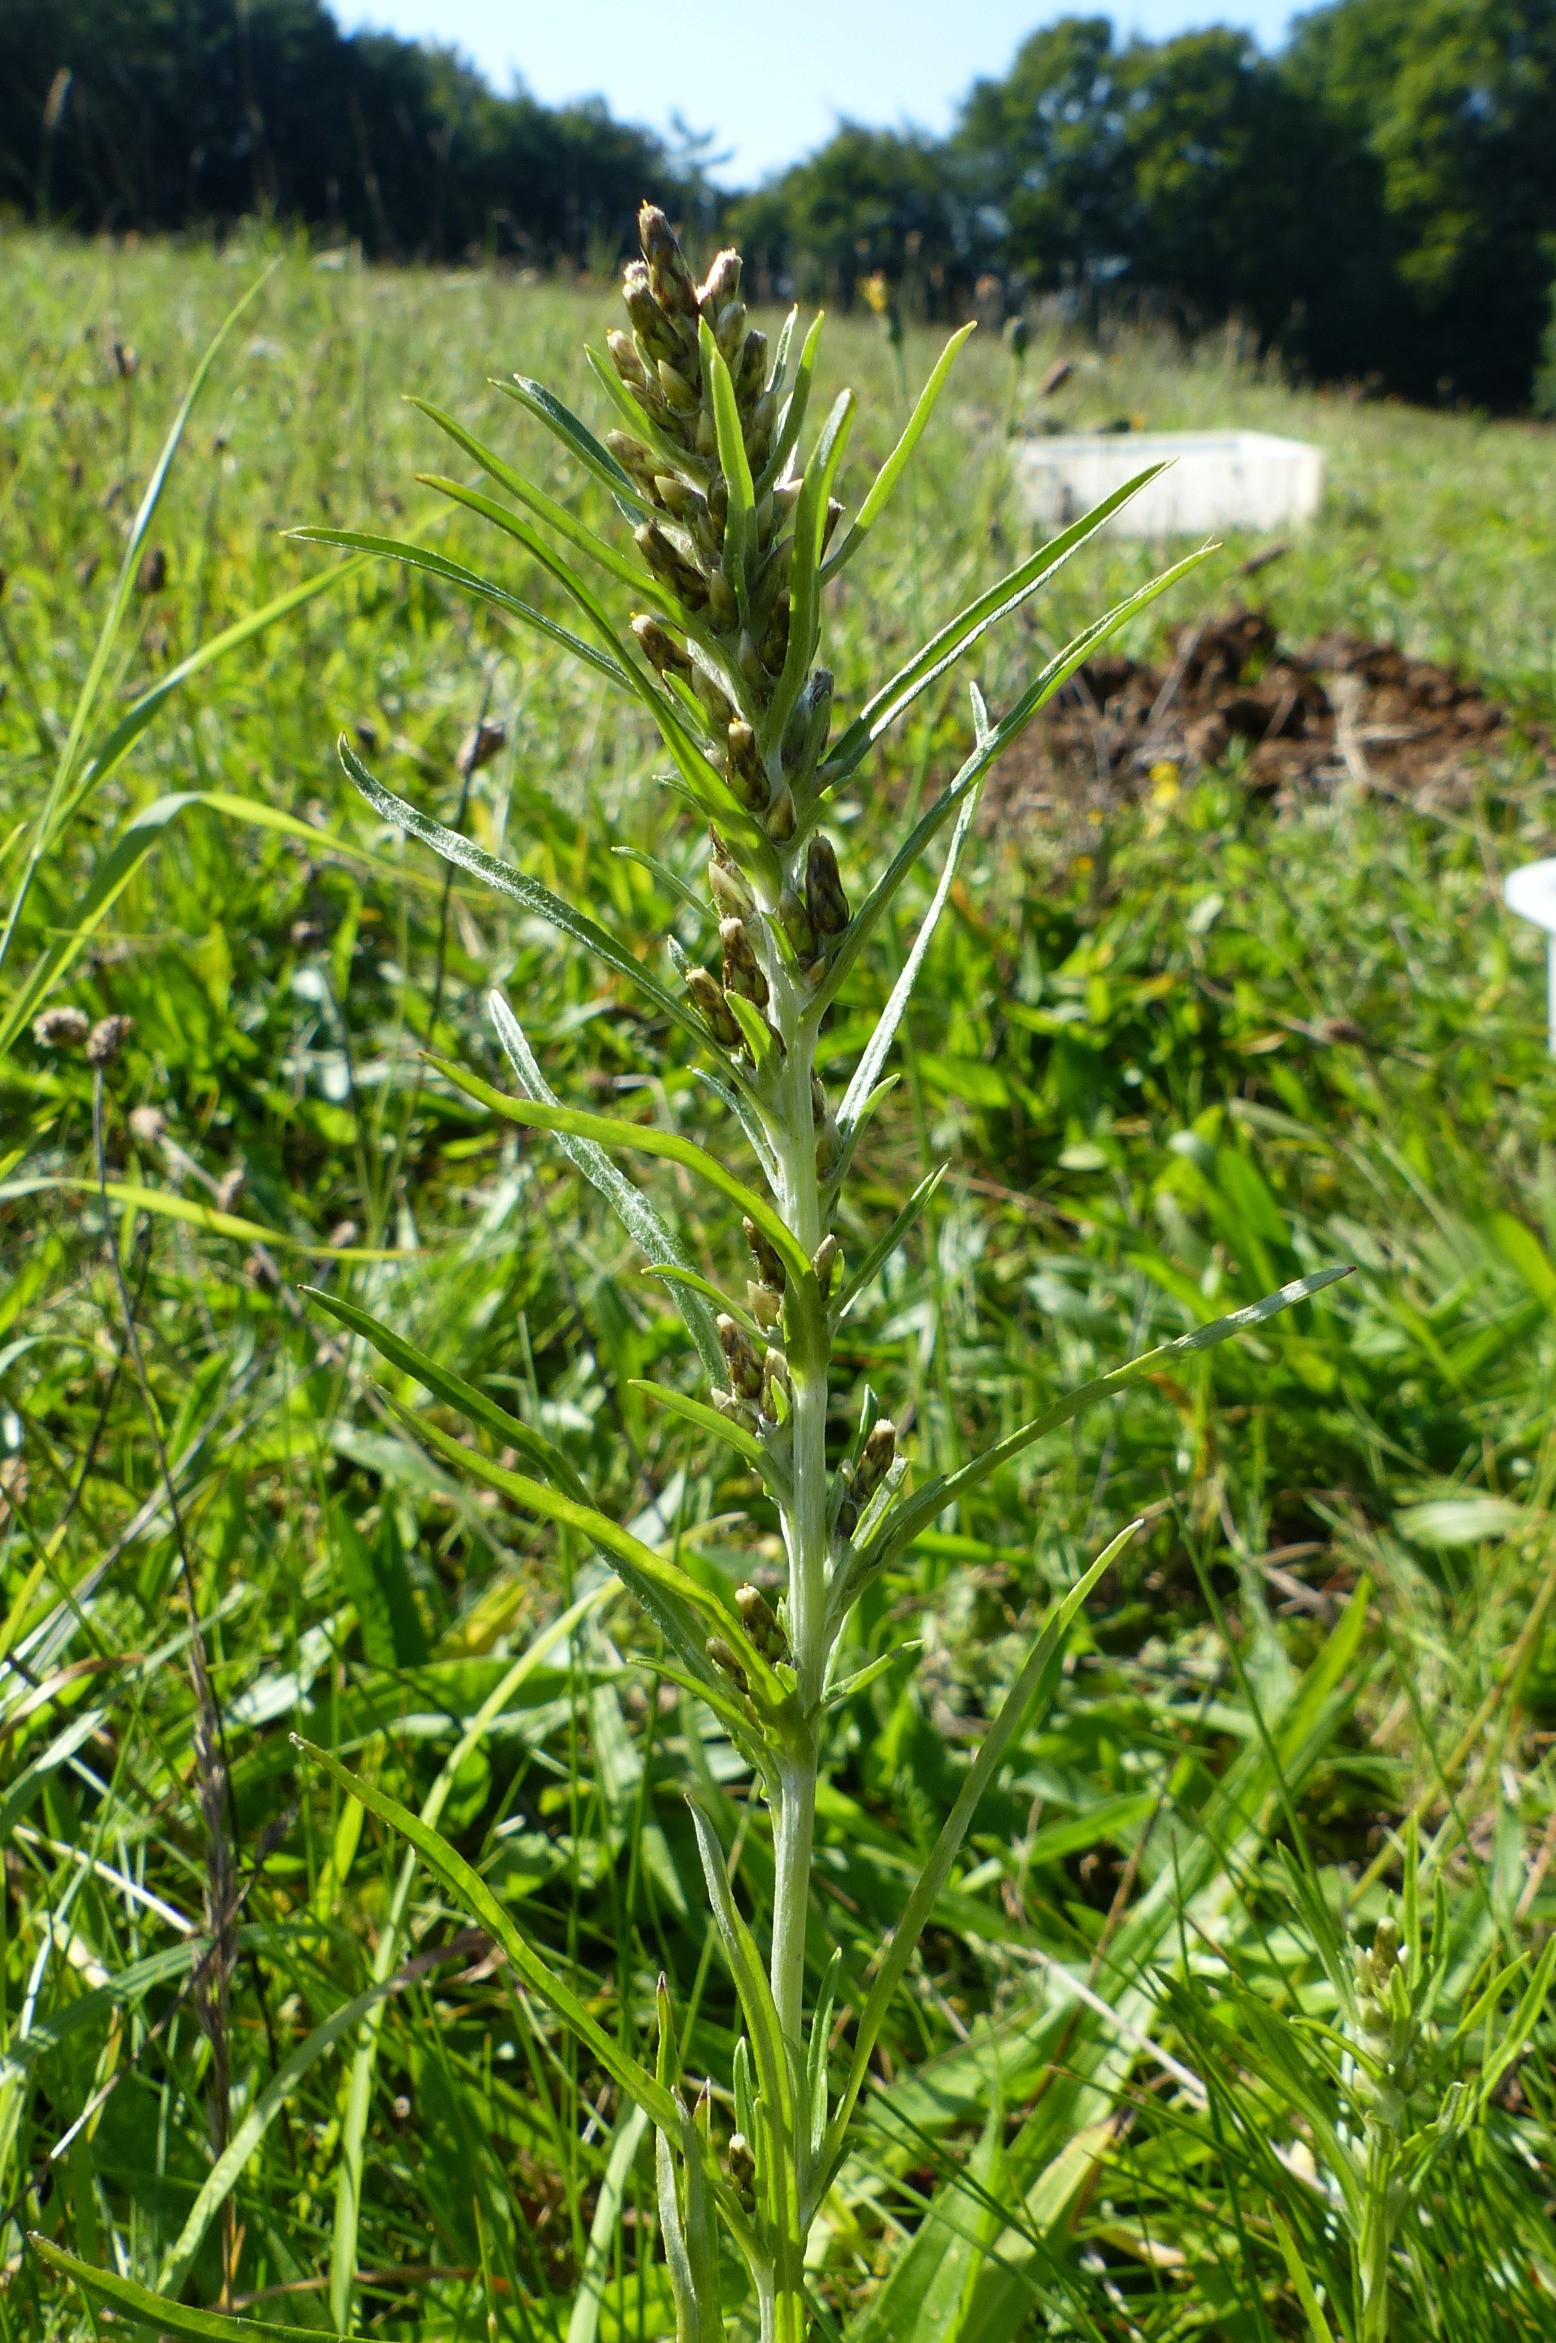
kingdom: Plantae
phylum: Tracheophyta
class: Magnoliopsida
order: Asterales
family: Asteraceae
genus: Omalotheca
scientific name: Omalotheca sylvatica
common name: Rank evighedsblomst
